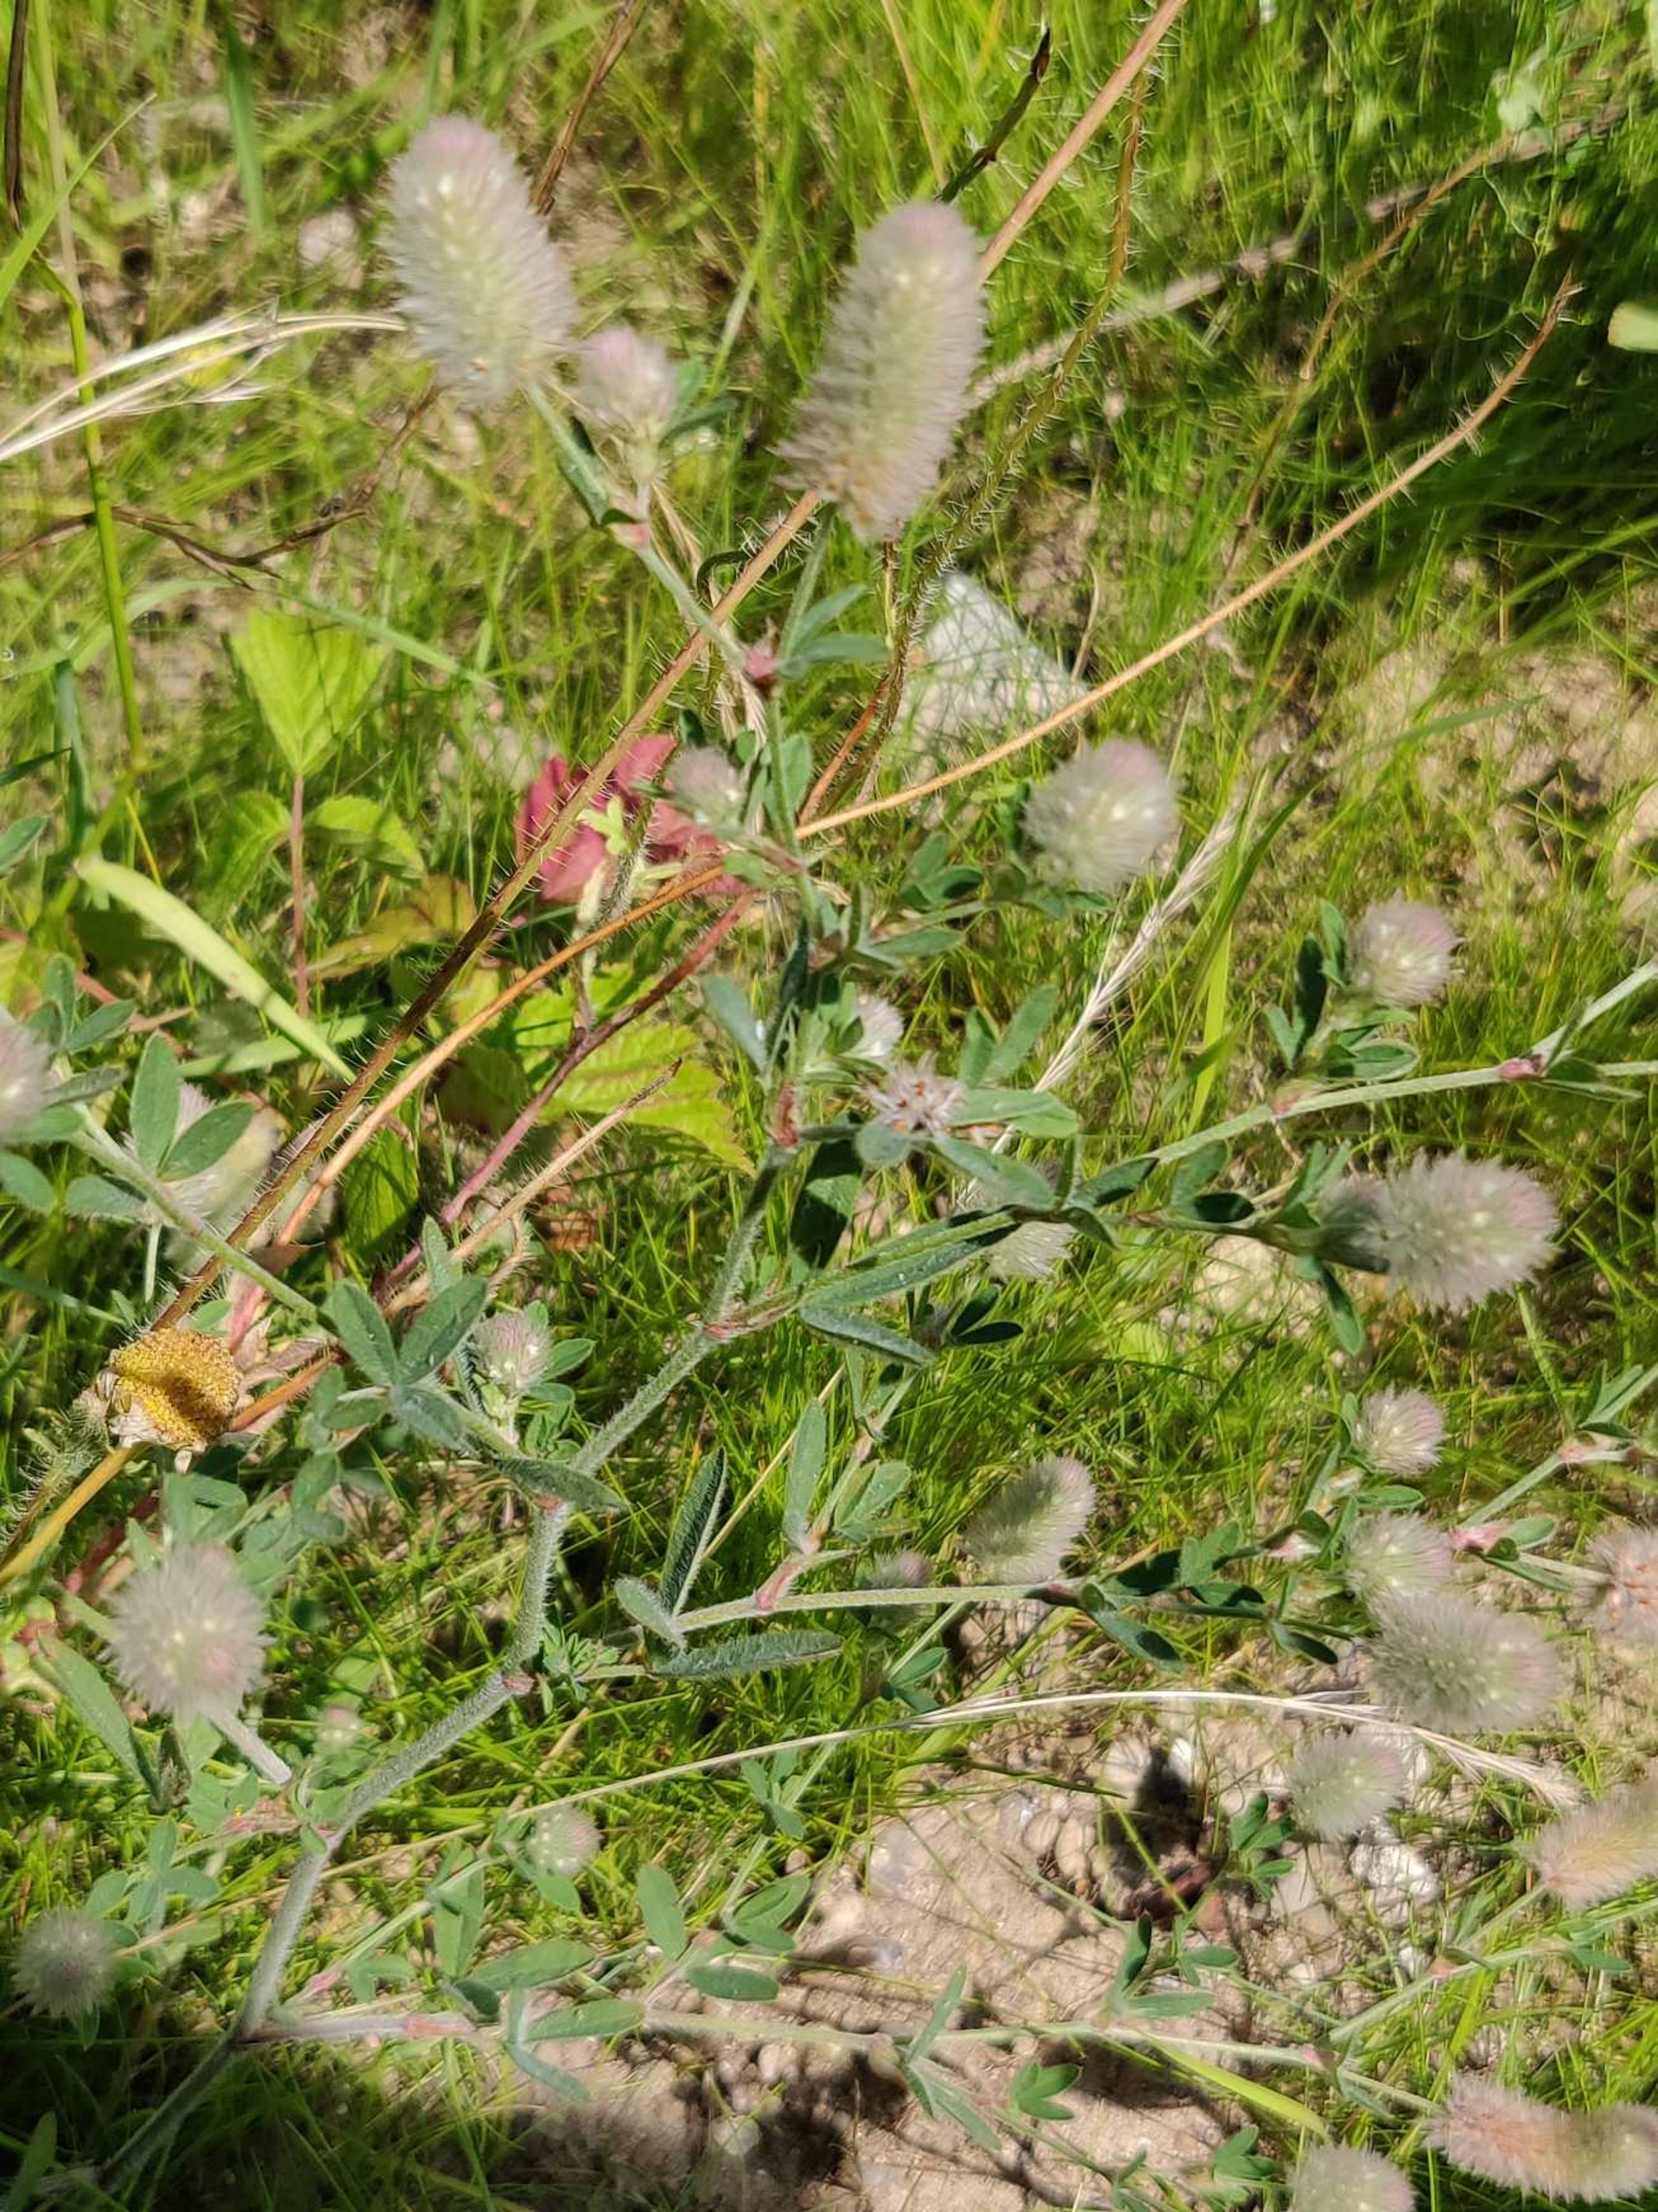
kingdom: Plantae
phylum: Tracheophyta
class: Magnoliopsida
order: Fabales
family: Fabaceae
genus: Trifolium
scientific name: Trifolium arvense
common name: Hare-kløver
